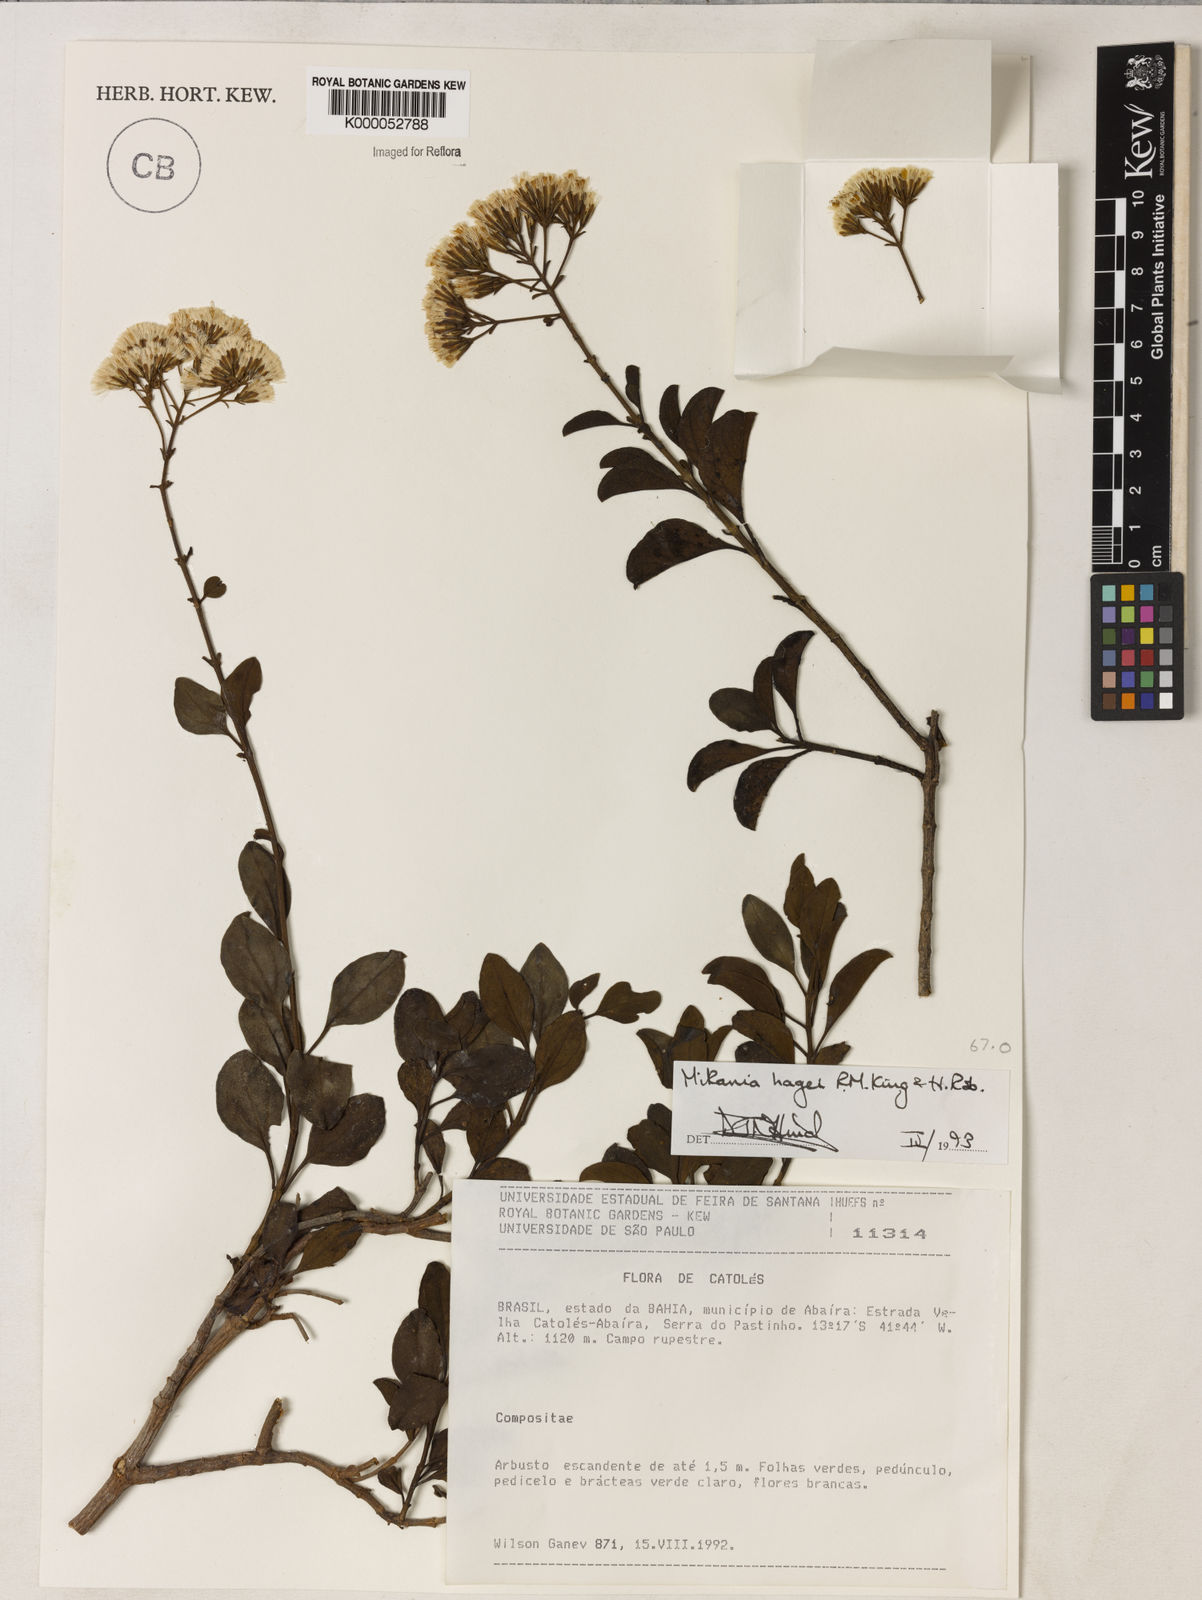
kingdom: Plantae
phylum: Tracheophyta
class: Magnoliopsida
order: Asterales
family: Asteraceae
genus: Mikania
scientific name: Mikania hagei
